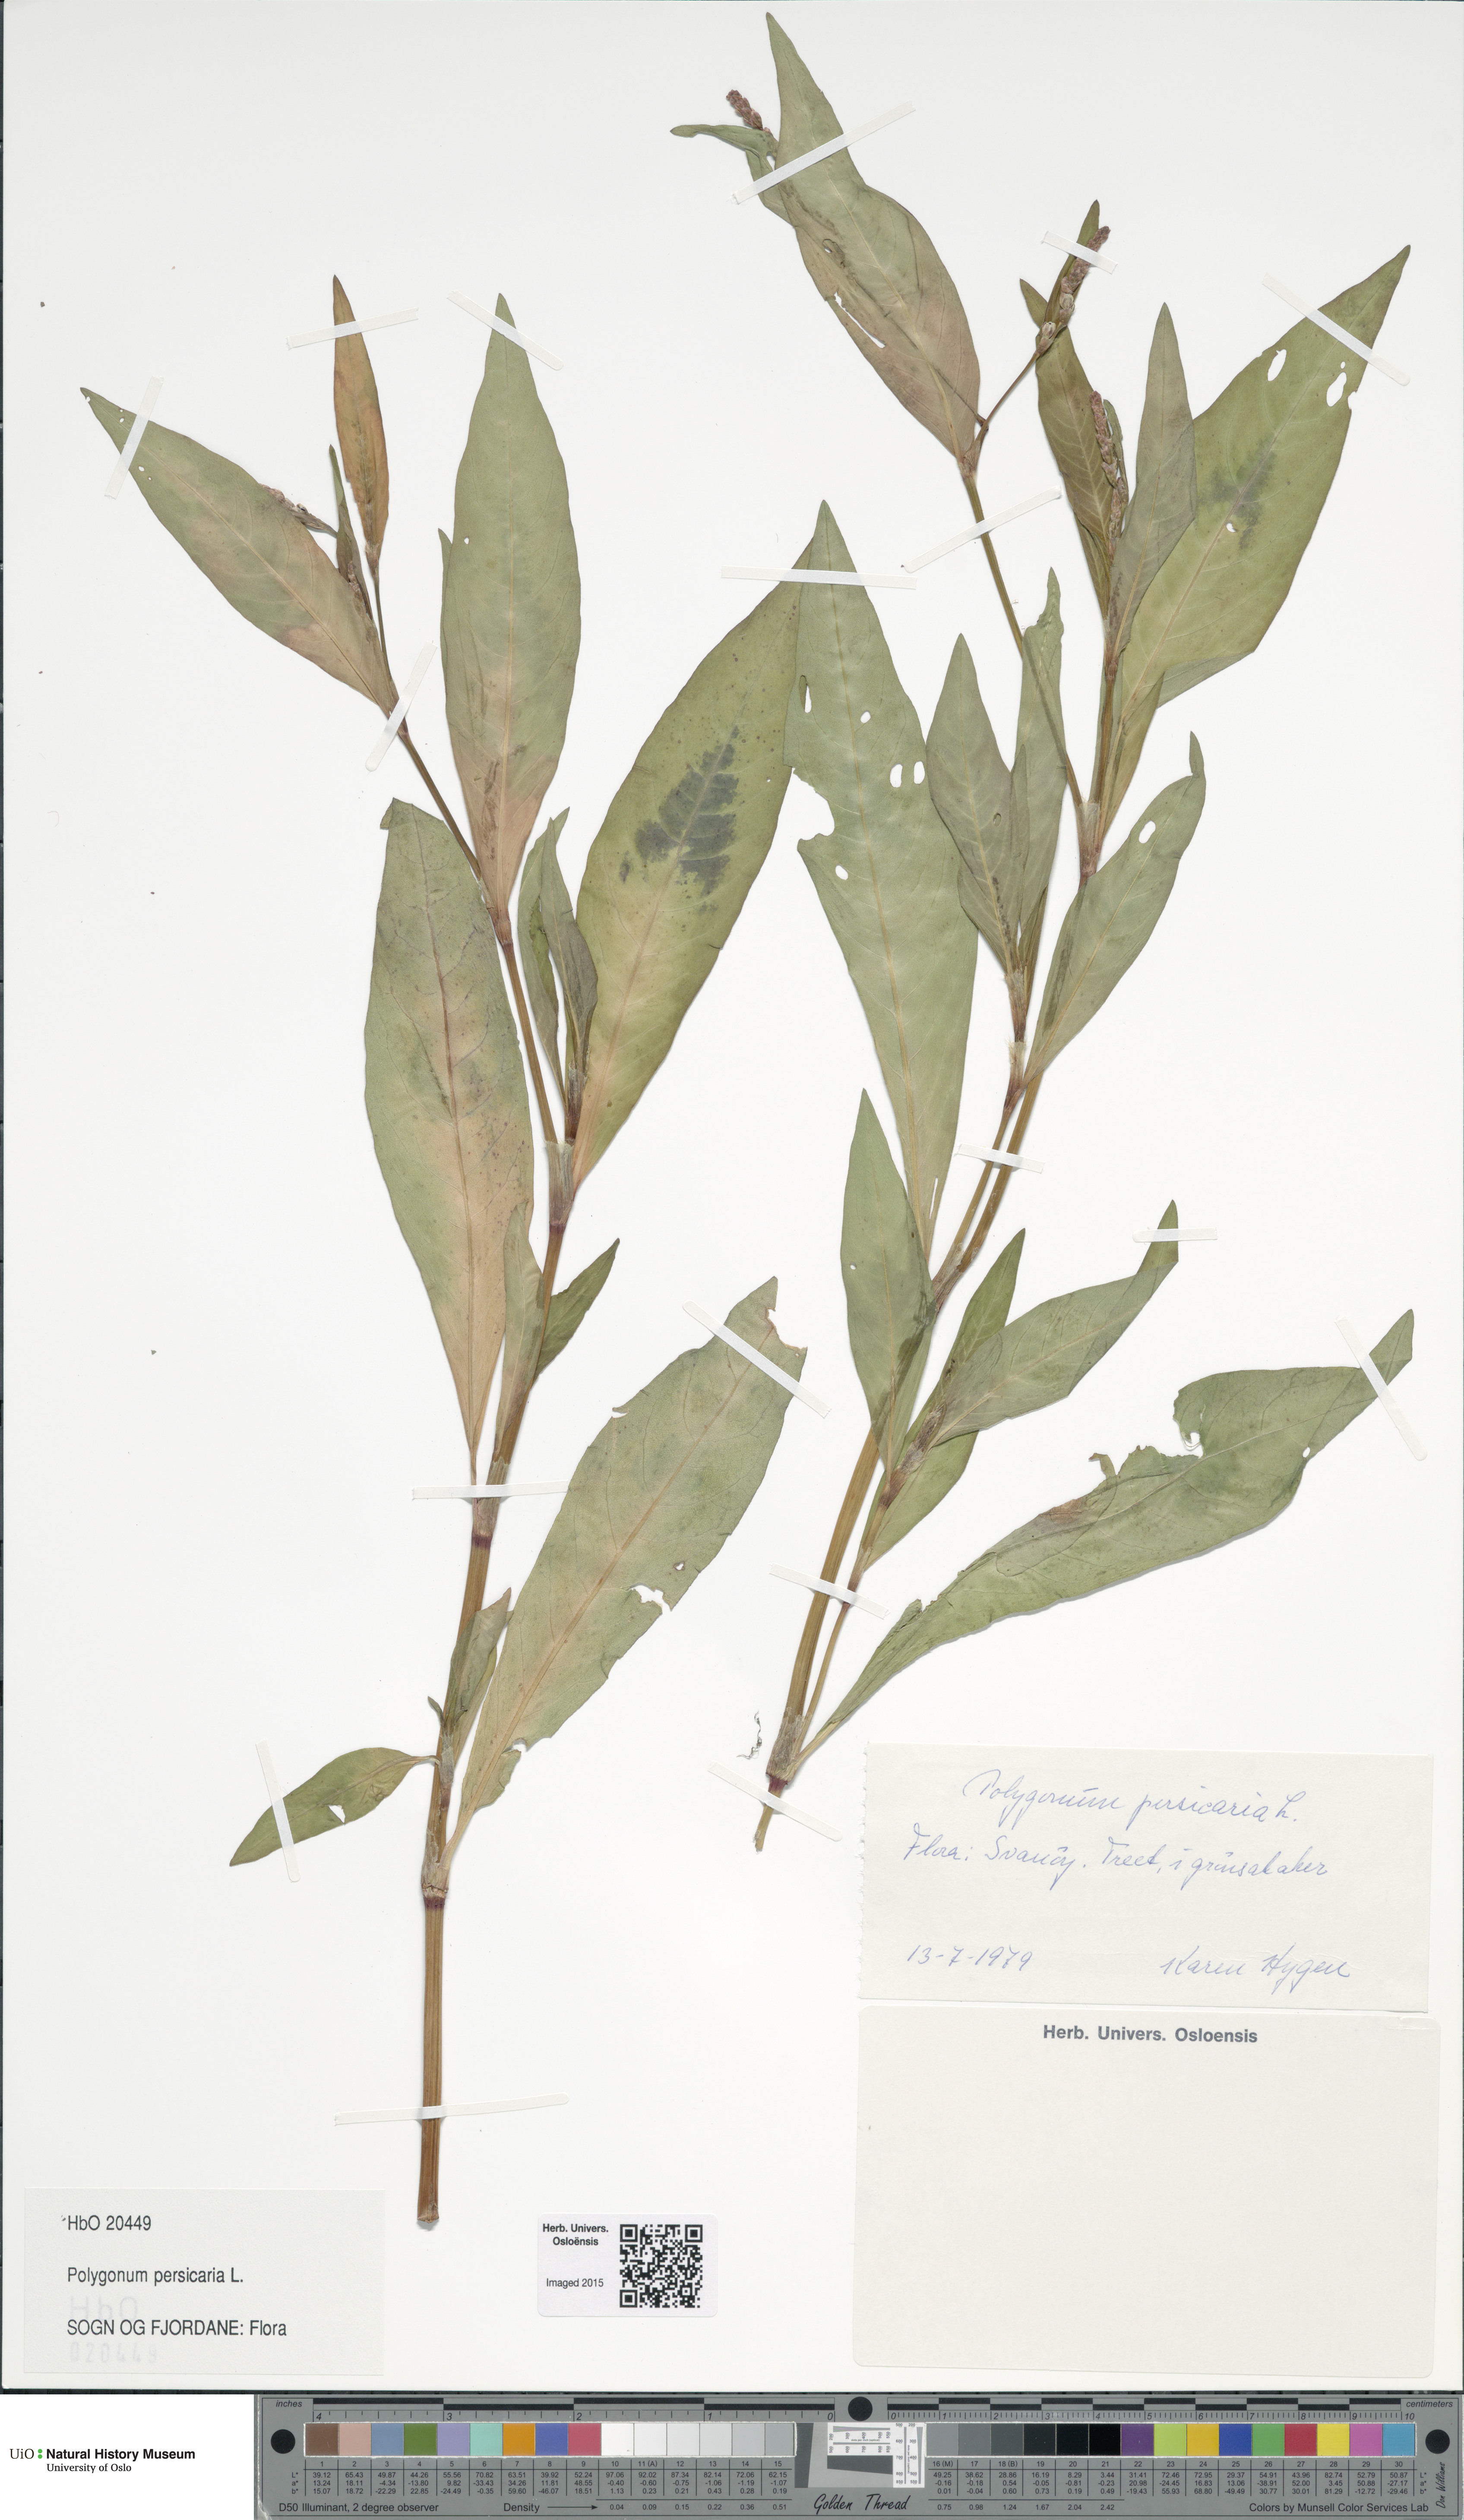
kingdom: Plantae
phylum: Tracheophyta
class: Magnoliopsida
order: Caryophyllales
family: Polygonaceae
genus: Persicaria
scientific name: Persicaria maculosa
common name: Redshank
